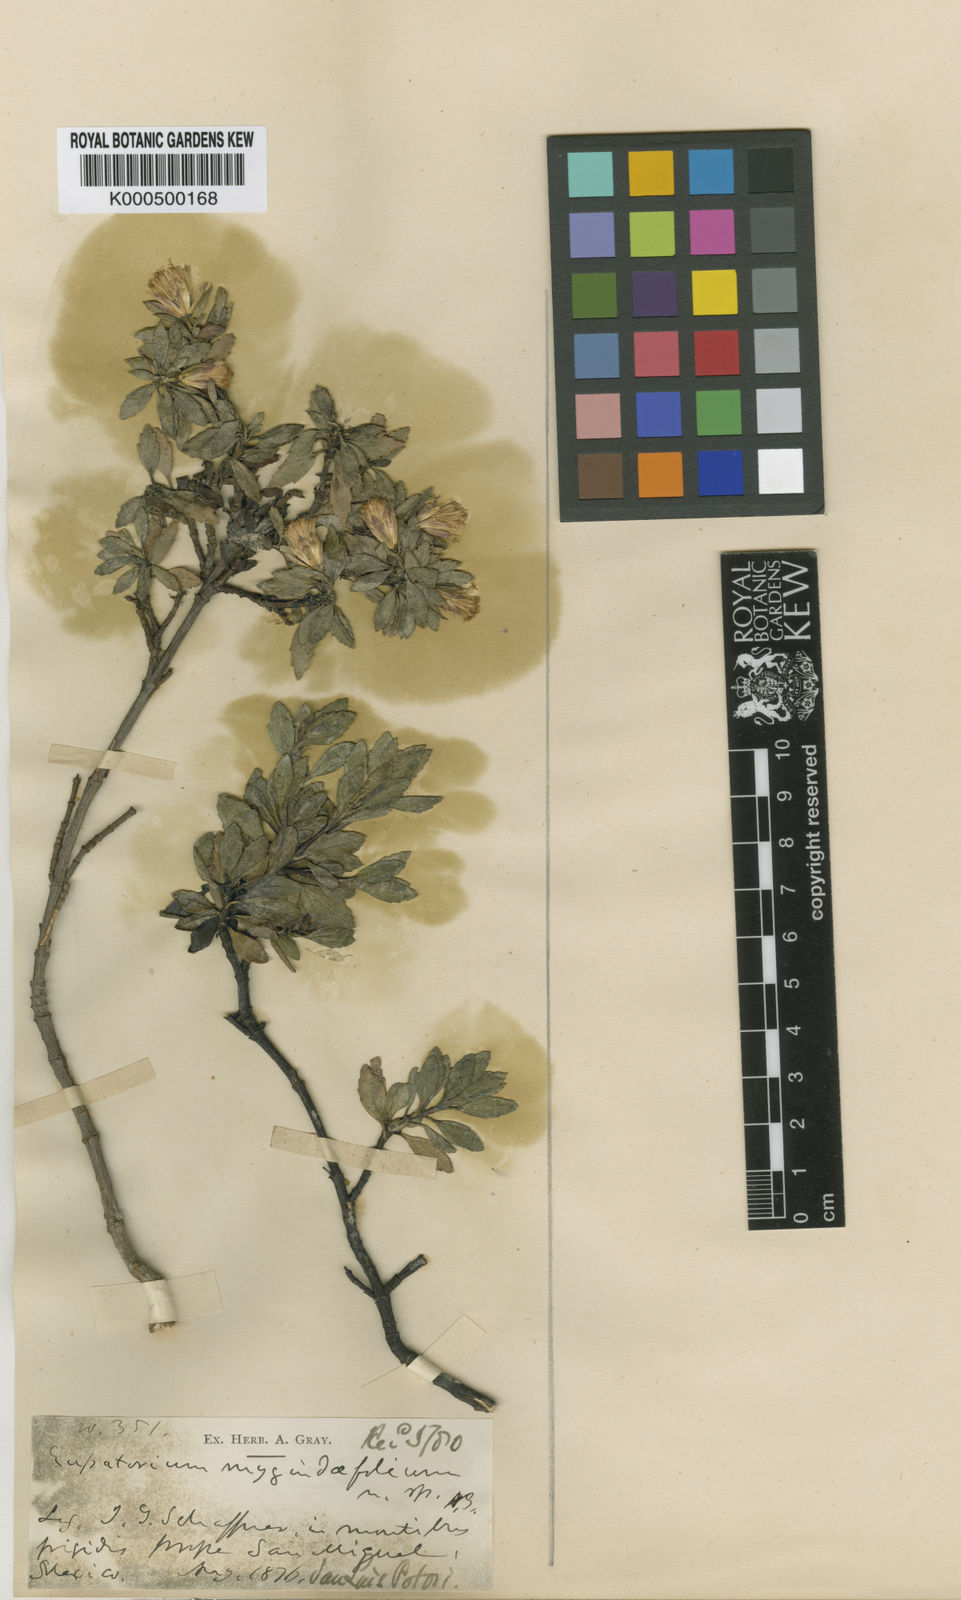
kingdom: Plantae
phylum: Tracheophyta
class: Magnoliopsida
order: Asterales
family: Asteraceae
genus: Ageratina
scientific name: Ageratina oppositifolia
